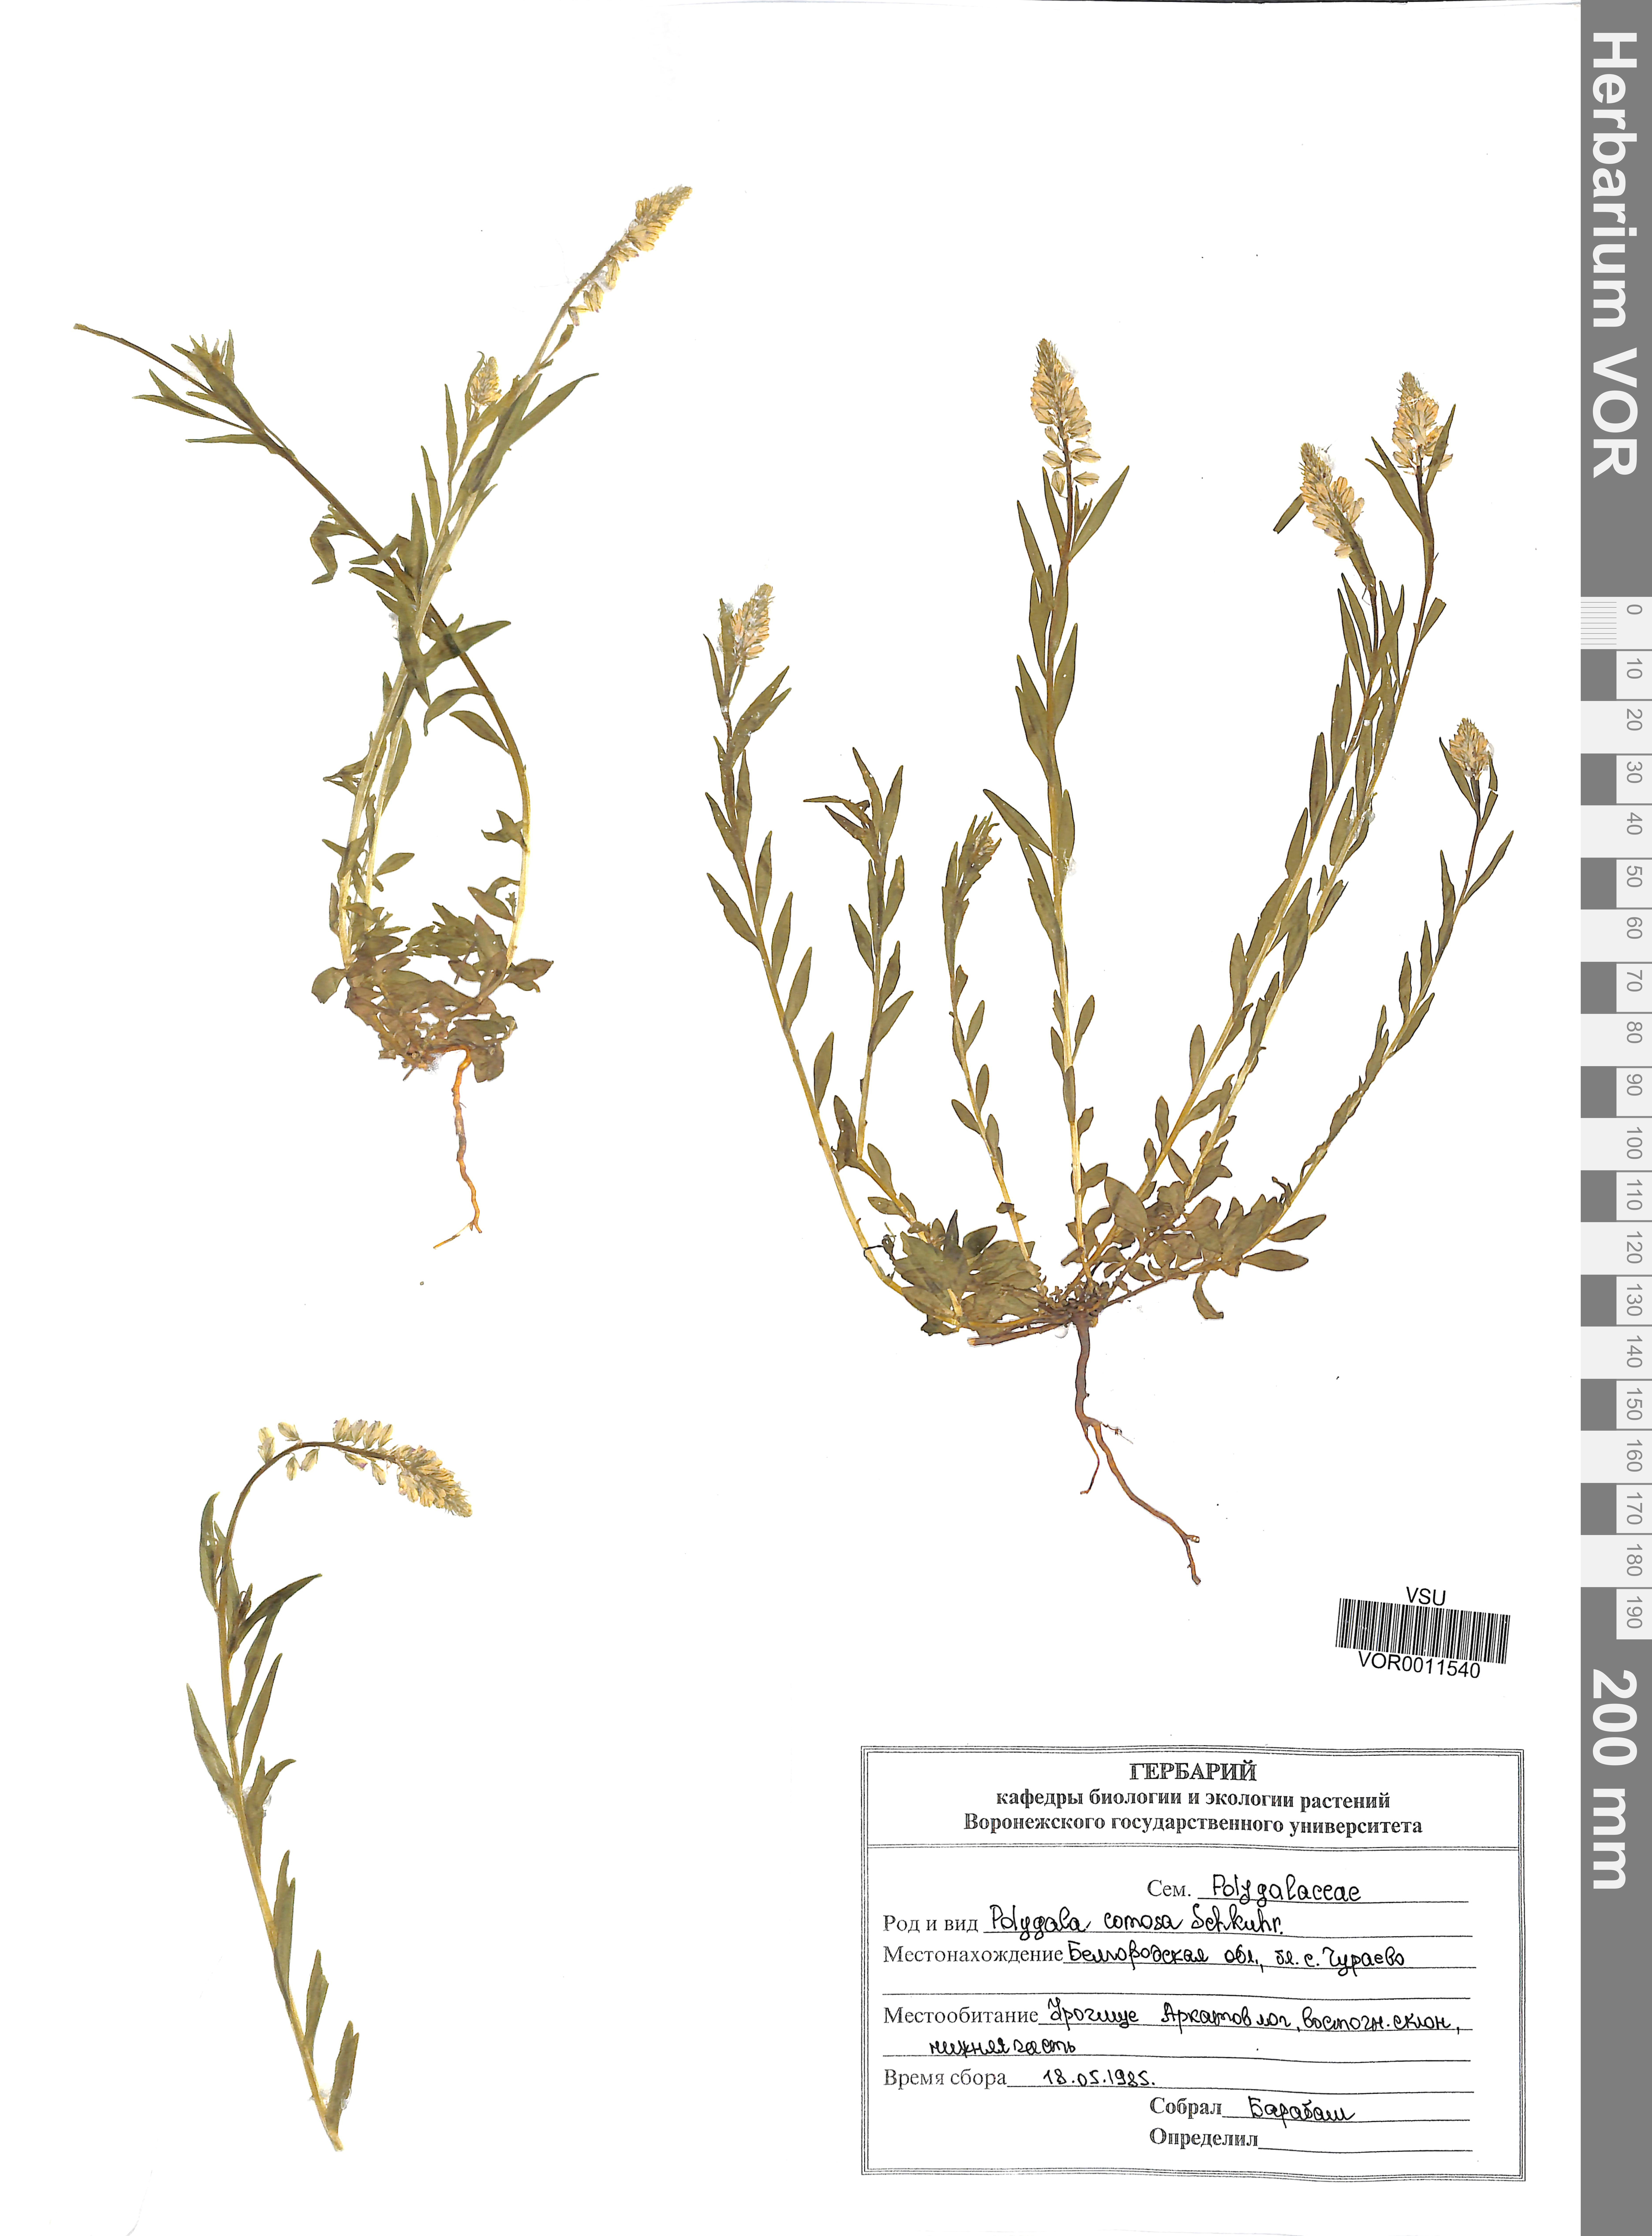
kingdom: Plantae
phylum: Tracheophyta
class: Magnoliopsida
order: Fabales
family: Polygalaceae
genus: Polygala
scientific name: Polygala comosa
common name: Tufted milkwort
